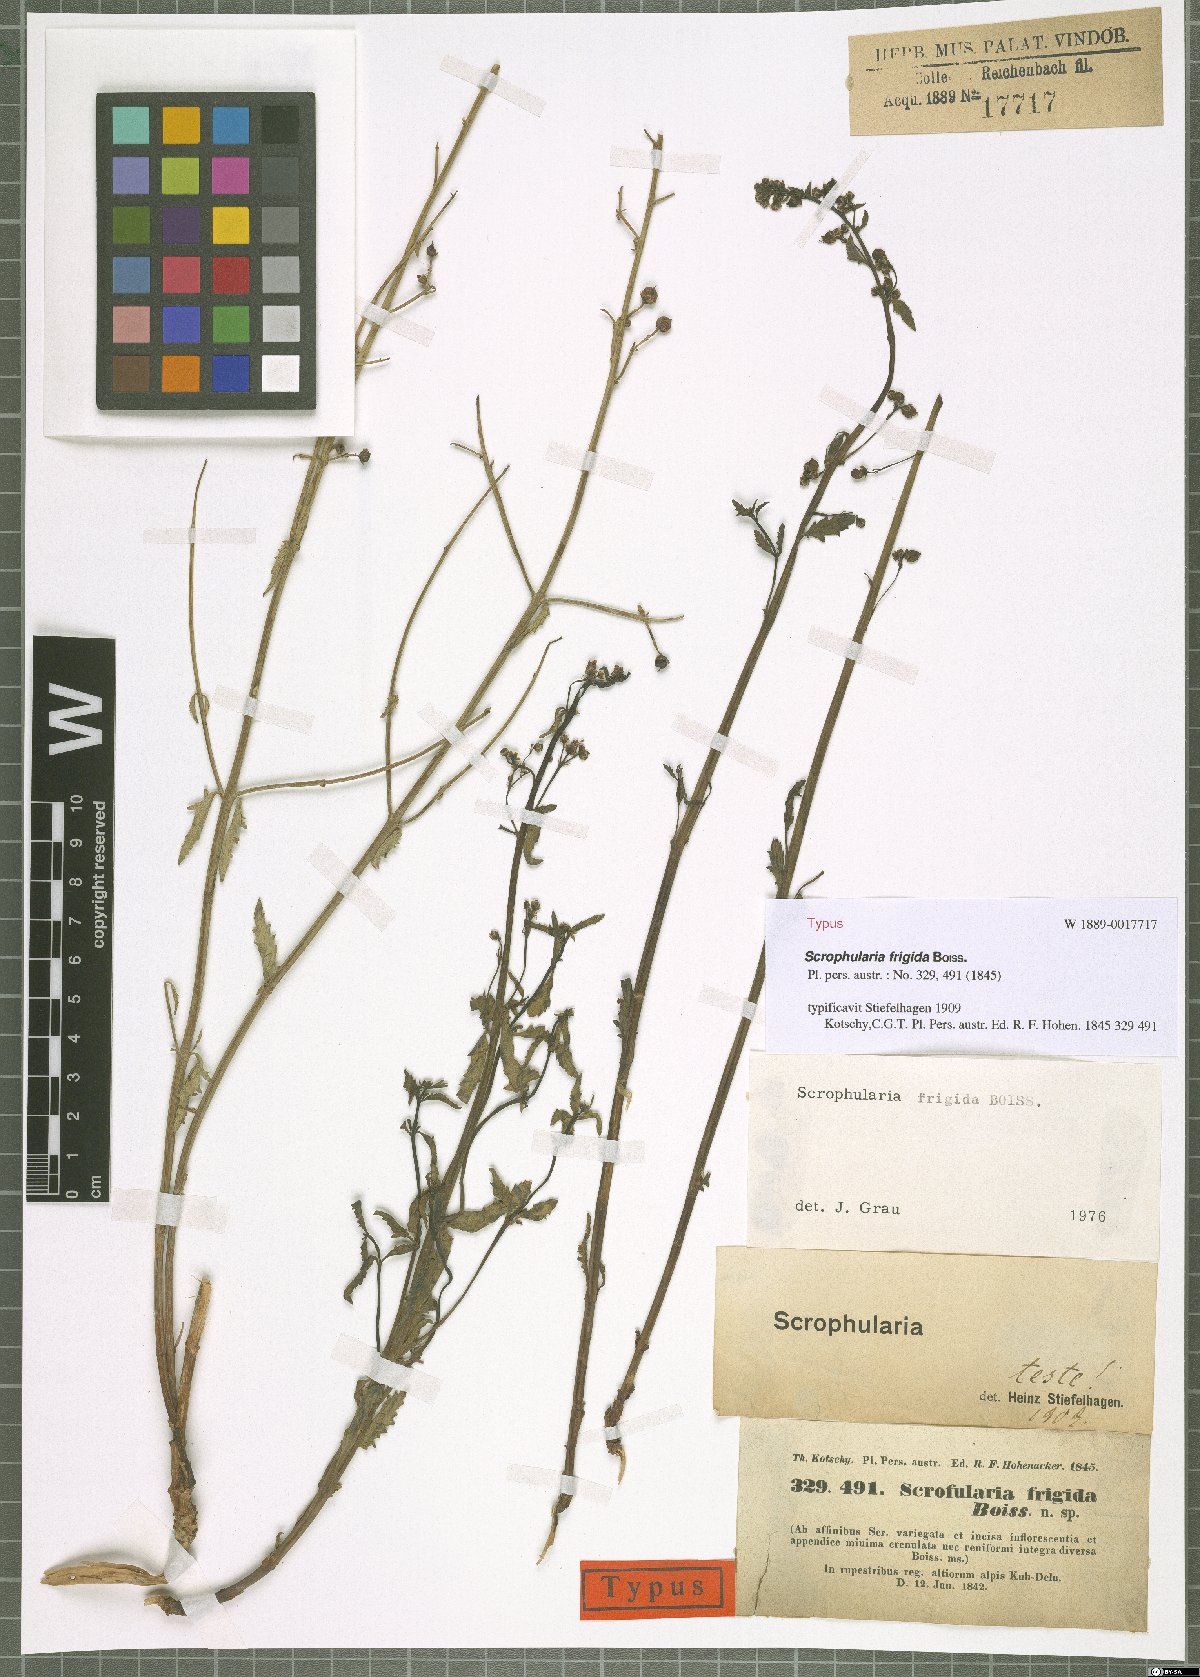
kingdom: Plantae
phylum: Tracheophyta
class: Magnoliopsida
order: Lamiales
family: Scrophulariaceae
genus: Scrophularia
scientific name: Scrophularia frigida
